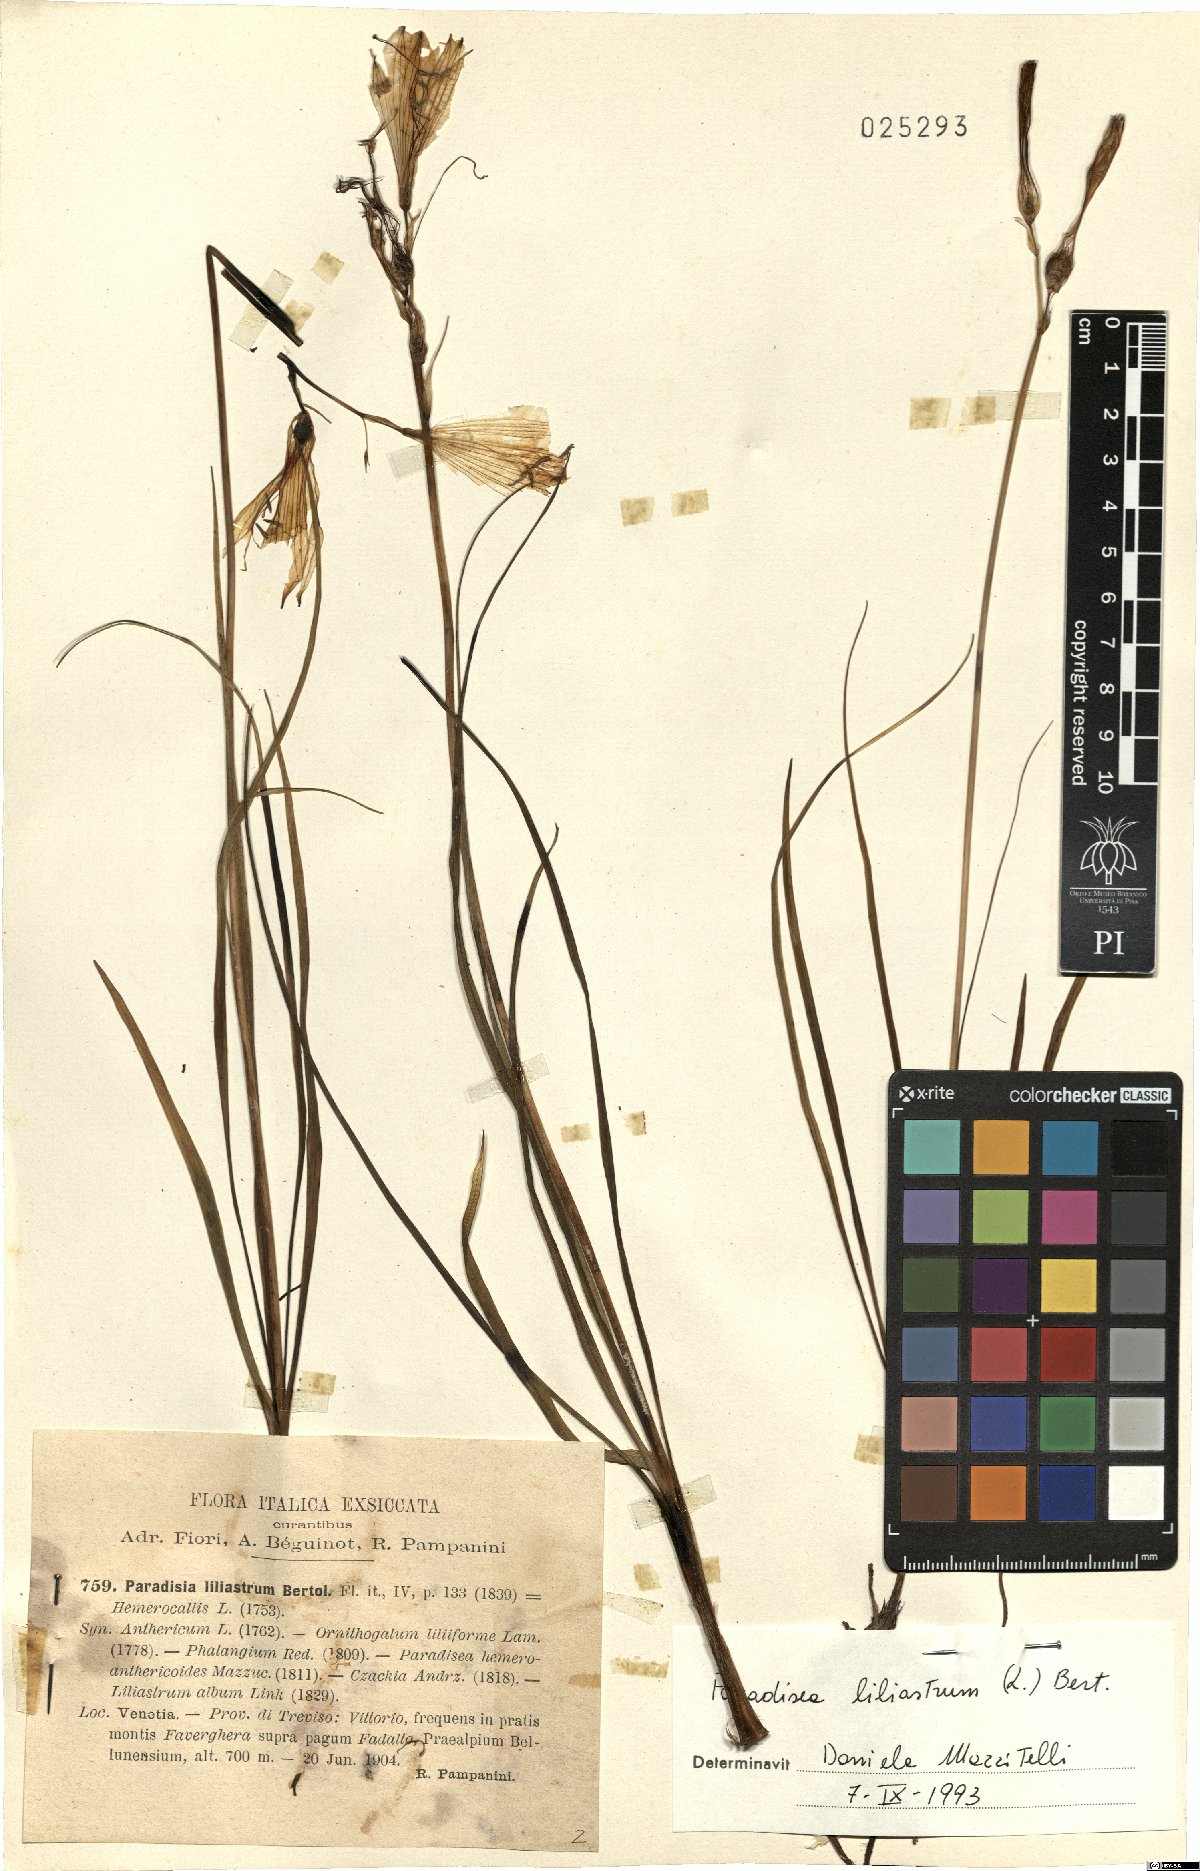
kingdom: Plantae
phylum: Tracheophyta
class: Liliopsida
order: Asparagales
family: Asparagaceae
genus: Paradisea
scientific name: Paradisea liliastrum
